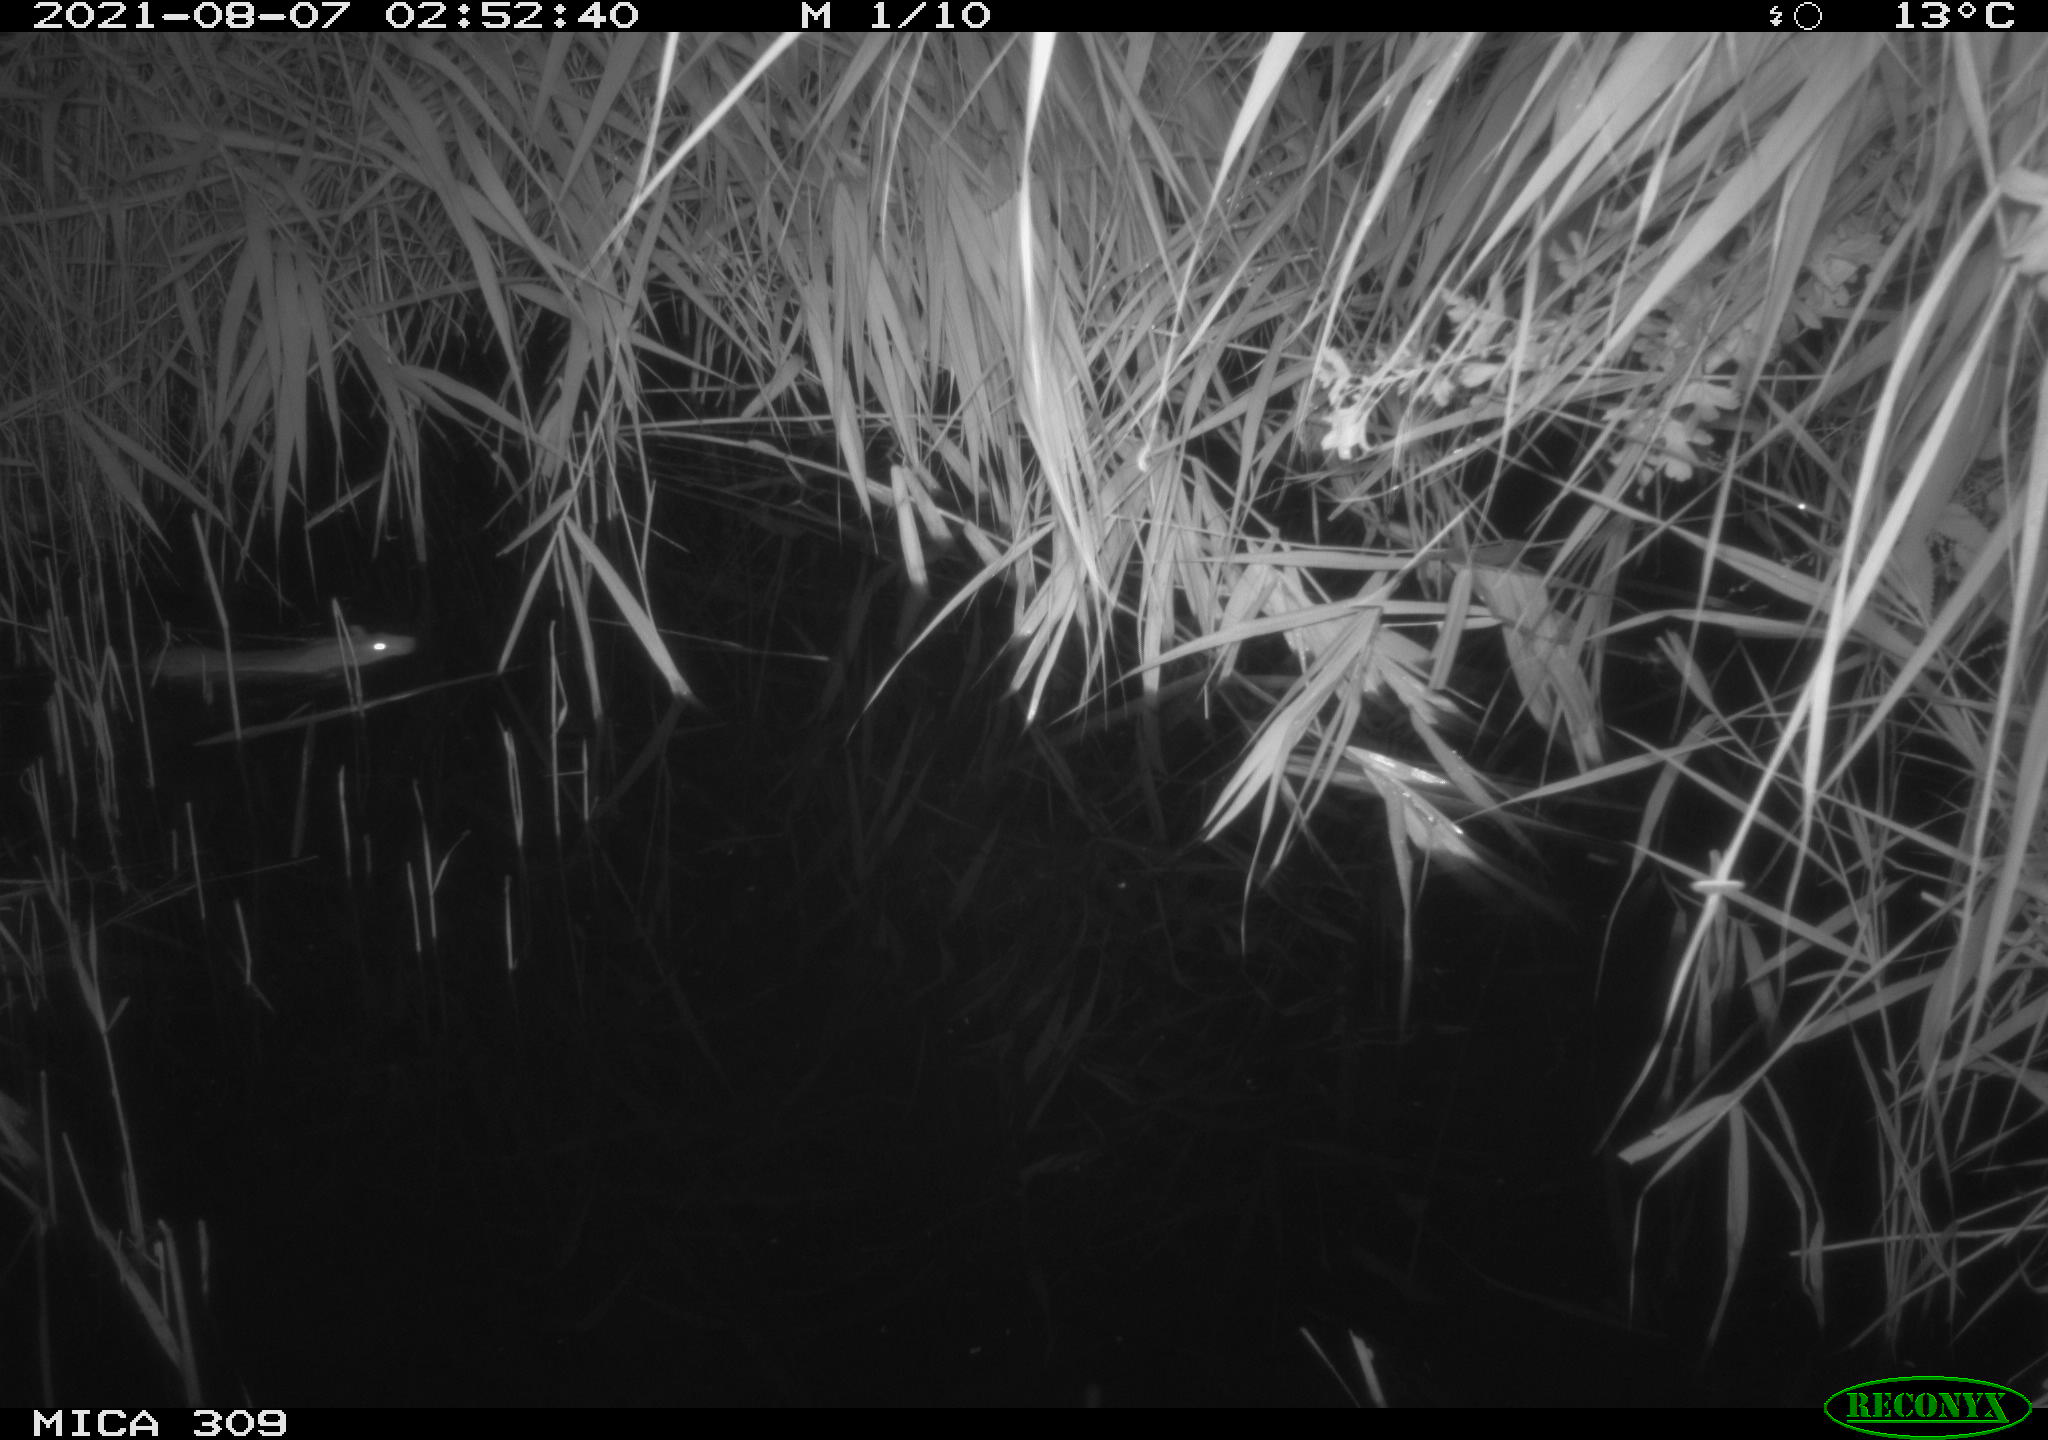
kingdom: Animalia
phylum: Chordata
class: Mammalia
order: Rodentia
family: Muridae
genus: Rattus
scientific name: Rattus norvegicus
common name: Brown rat
